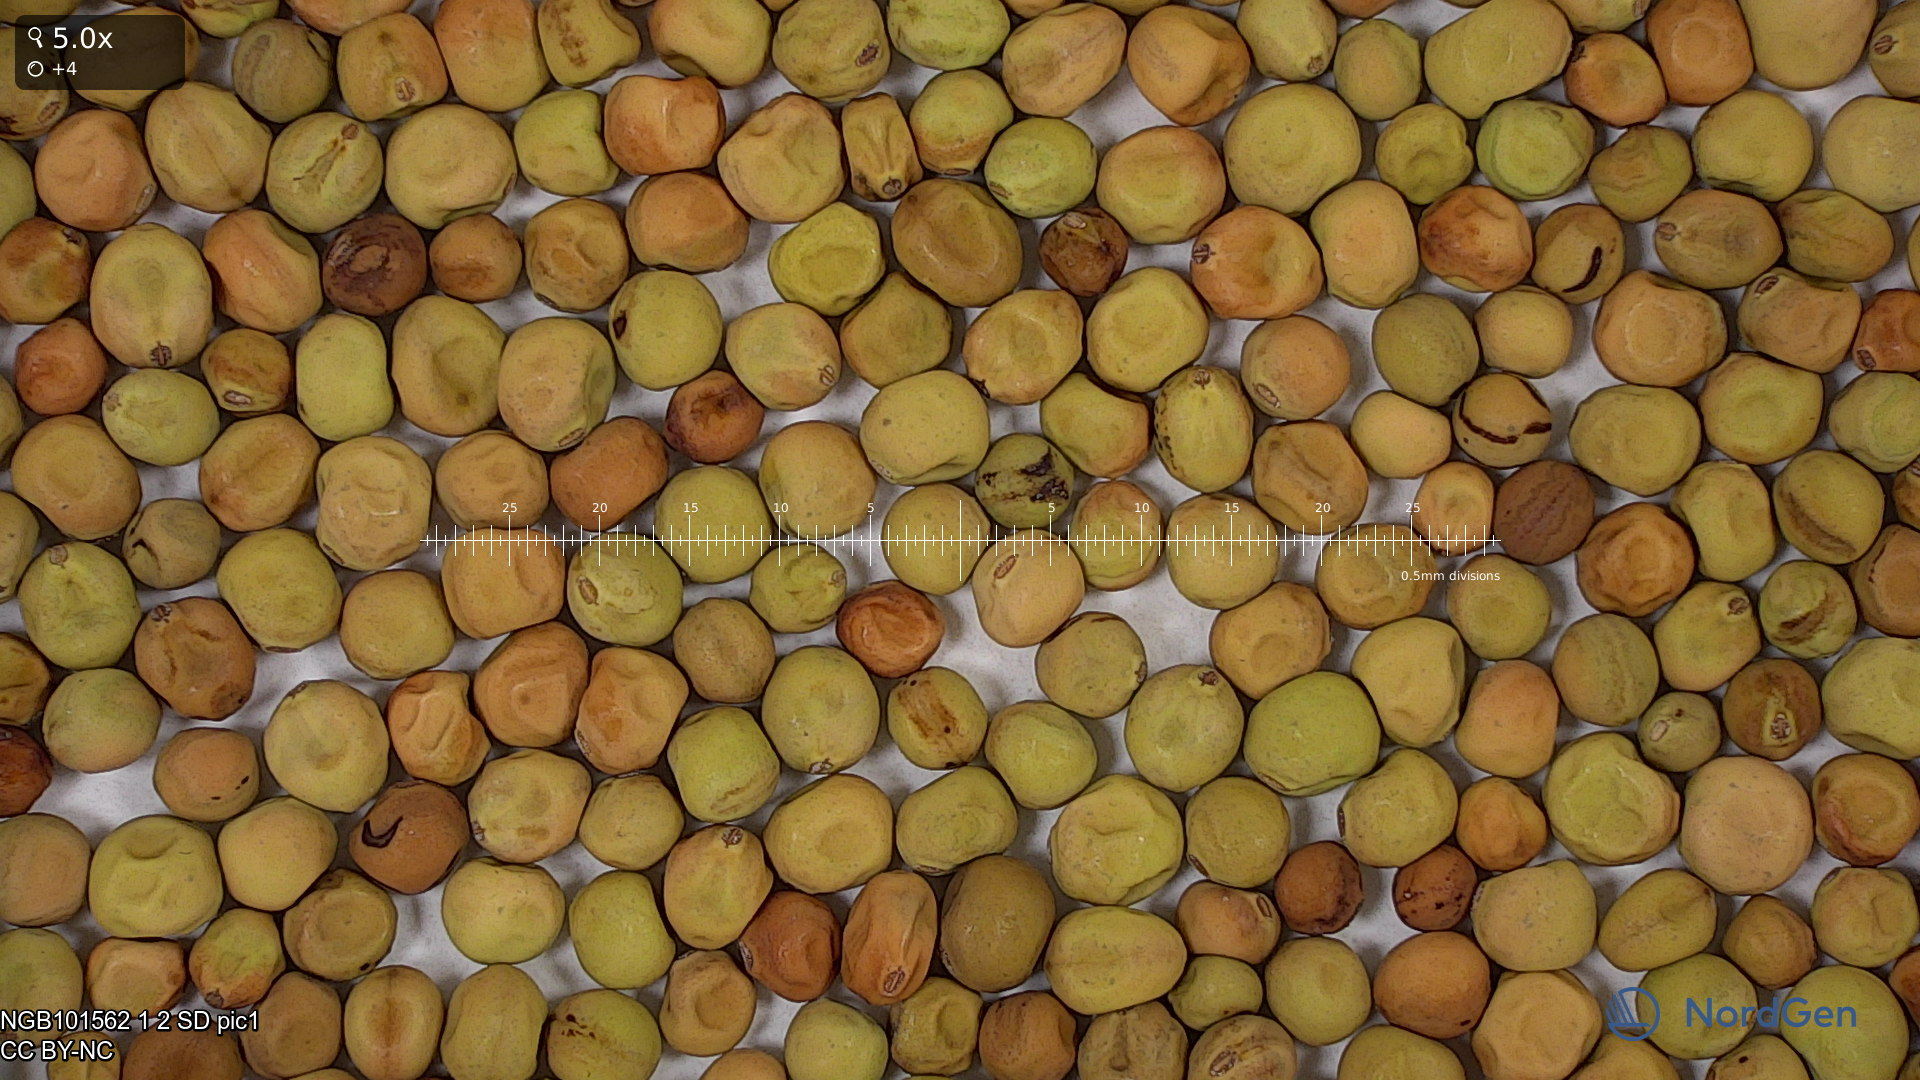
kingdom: Plantae
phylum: Tracheophyta
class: Magnoliopsida
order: Fabales
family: Fabaceae
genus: Lathyrus
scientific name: Lathyrus oleraceus
